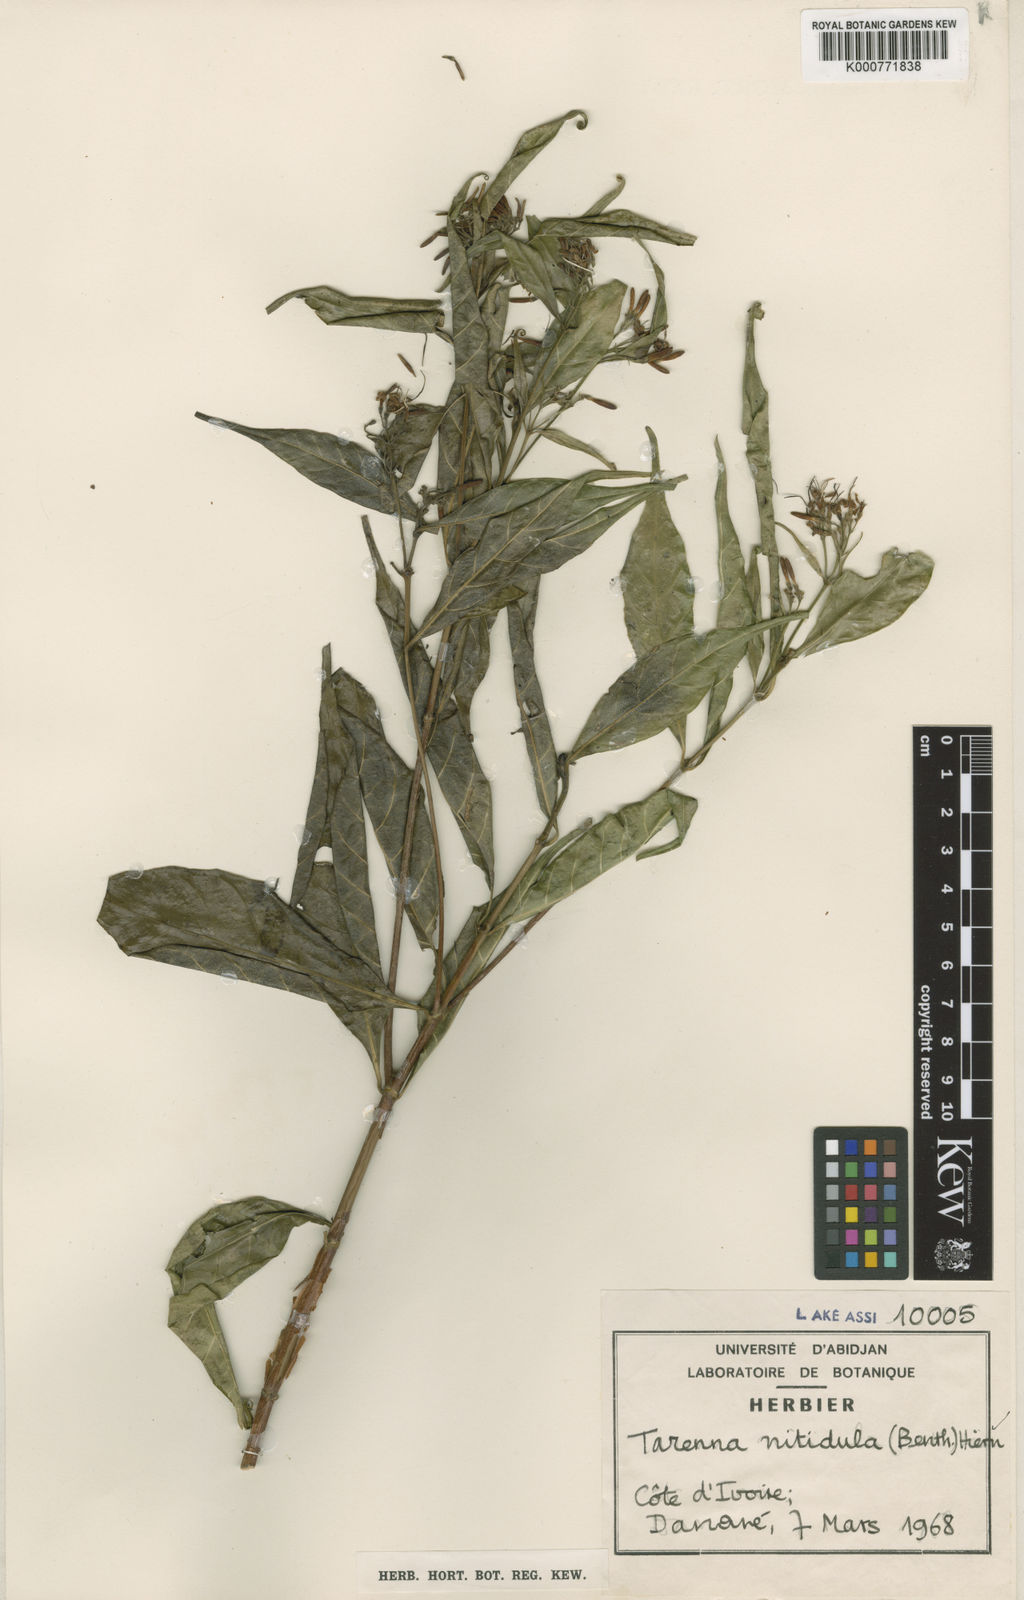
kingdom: Plantae
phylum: Tracheophyta
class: Magnoliopsida
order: Gentianales
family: Rubiaceae
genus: Tarenna
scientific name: Tarenna nitidula
